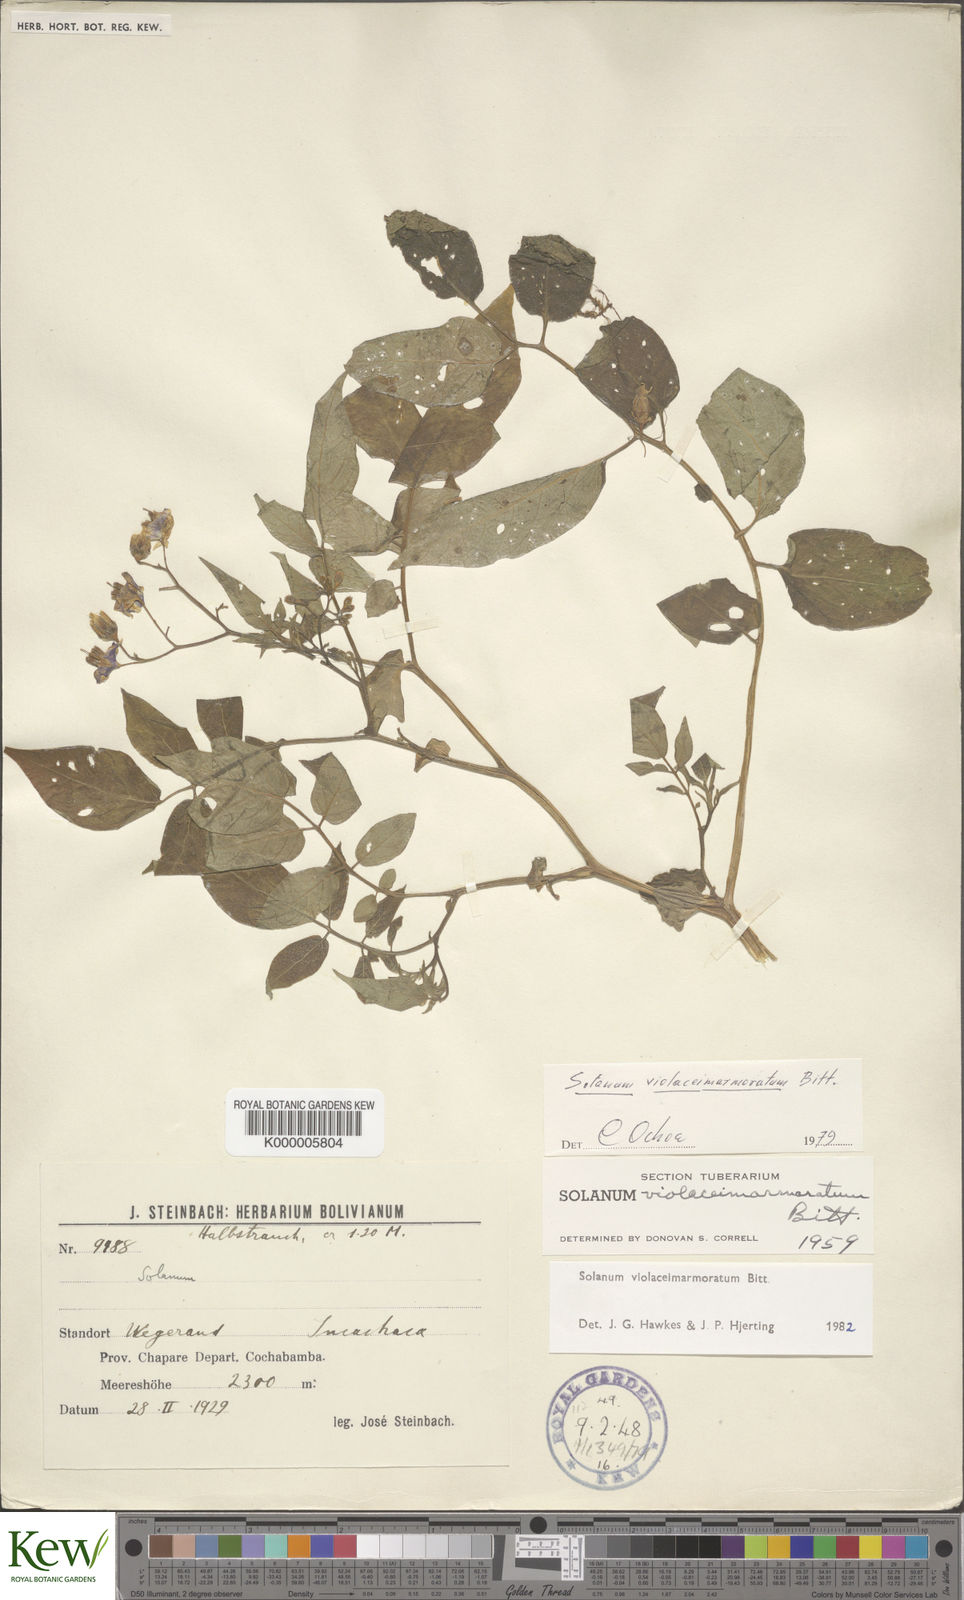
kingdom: Plantae
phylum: Tracheophyta
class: Magnoliopsida
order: Solanales
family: Solanaceae
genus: Solanum
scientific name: Solanum violaceimarmoratum
